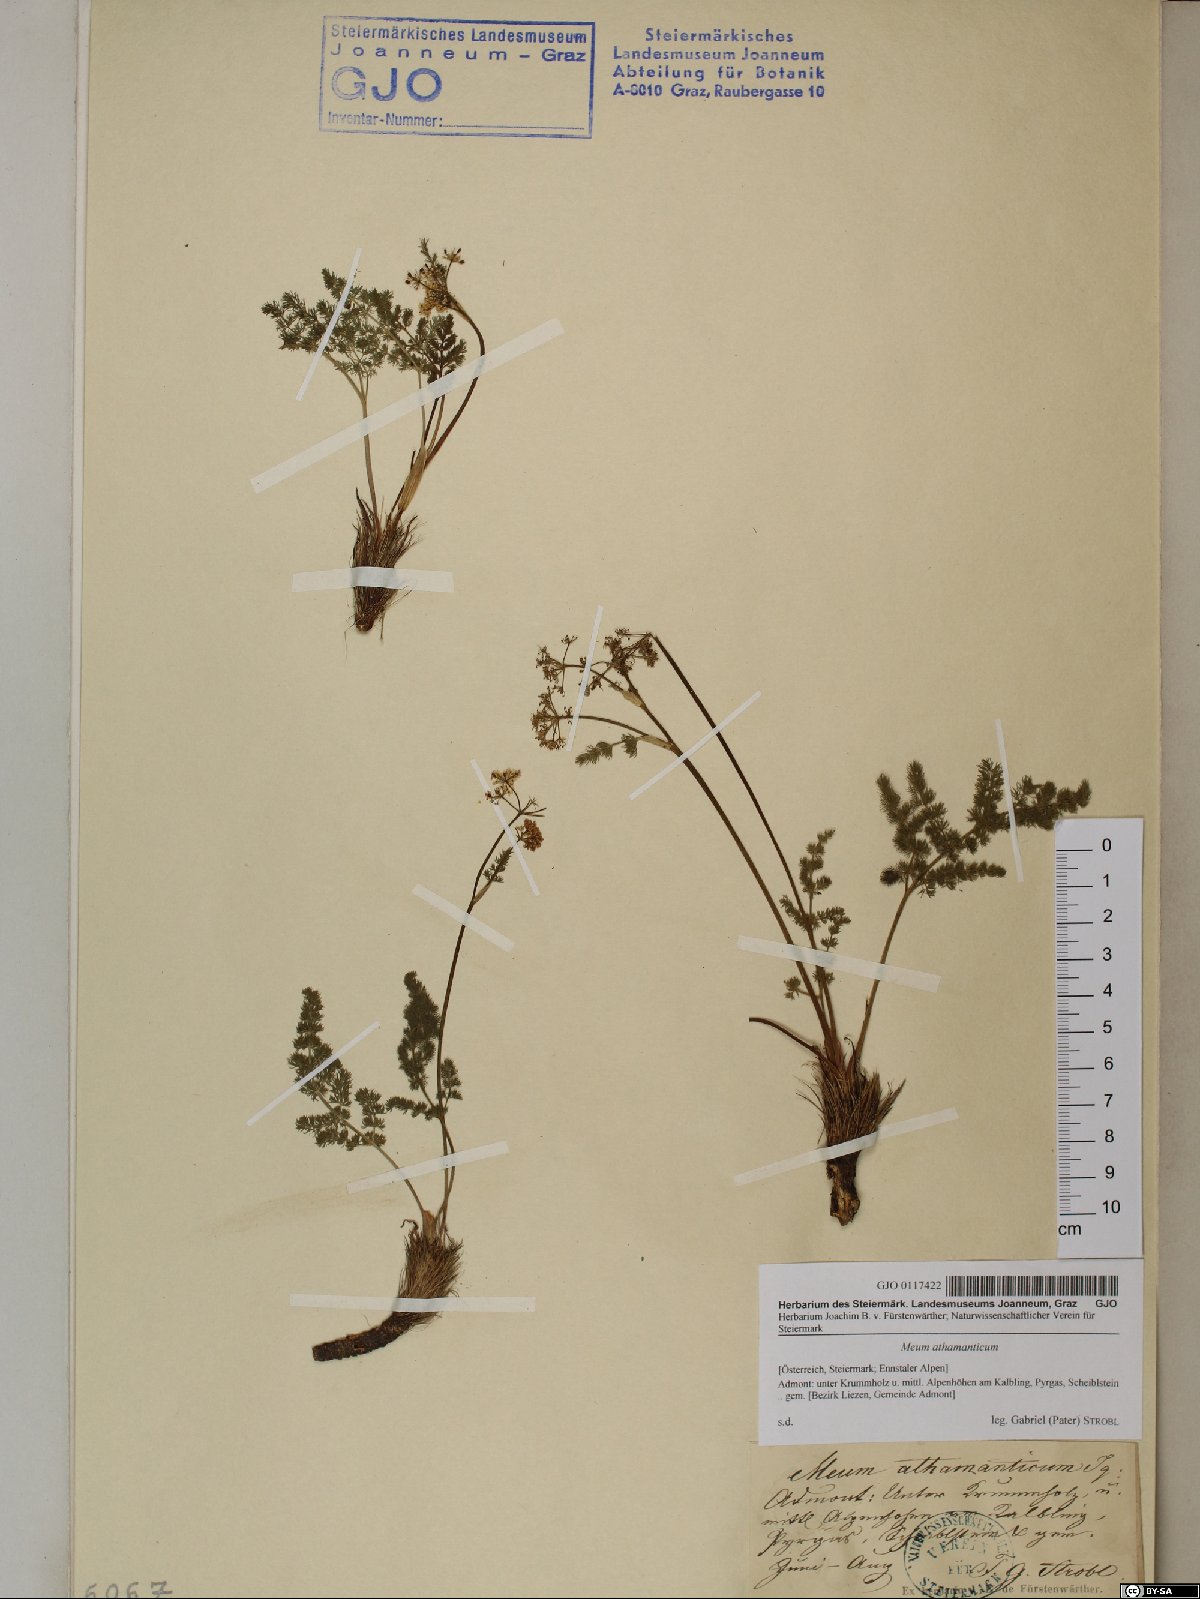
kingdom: Plantae
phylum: Tracheophyta
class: Magnoliopsida
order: Apiales
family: Apiaceae
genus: Meum
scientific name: Meum athamanticum
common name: Spignel
